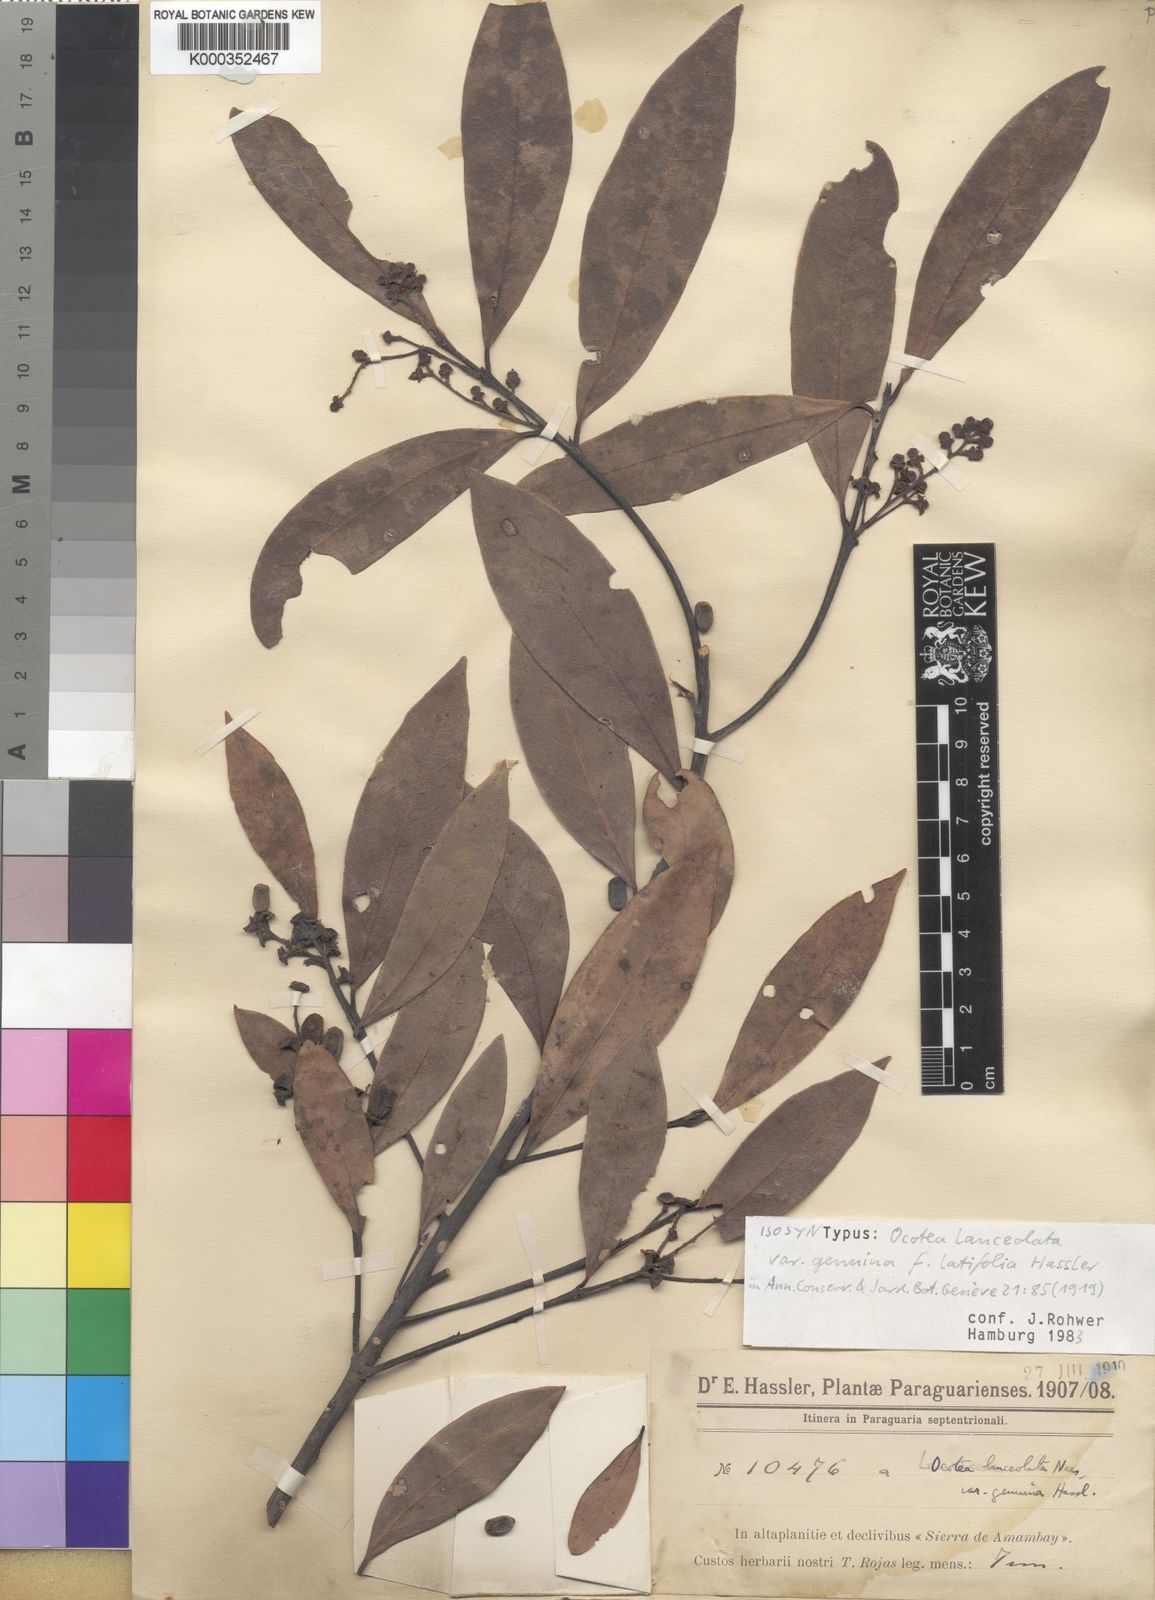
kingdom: Plantae
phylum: Tracheophyta
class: Magnoliopsida
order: Laurales
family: Lauraceae
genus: Phoebe
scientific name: Phoebe lanceolata
